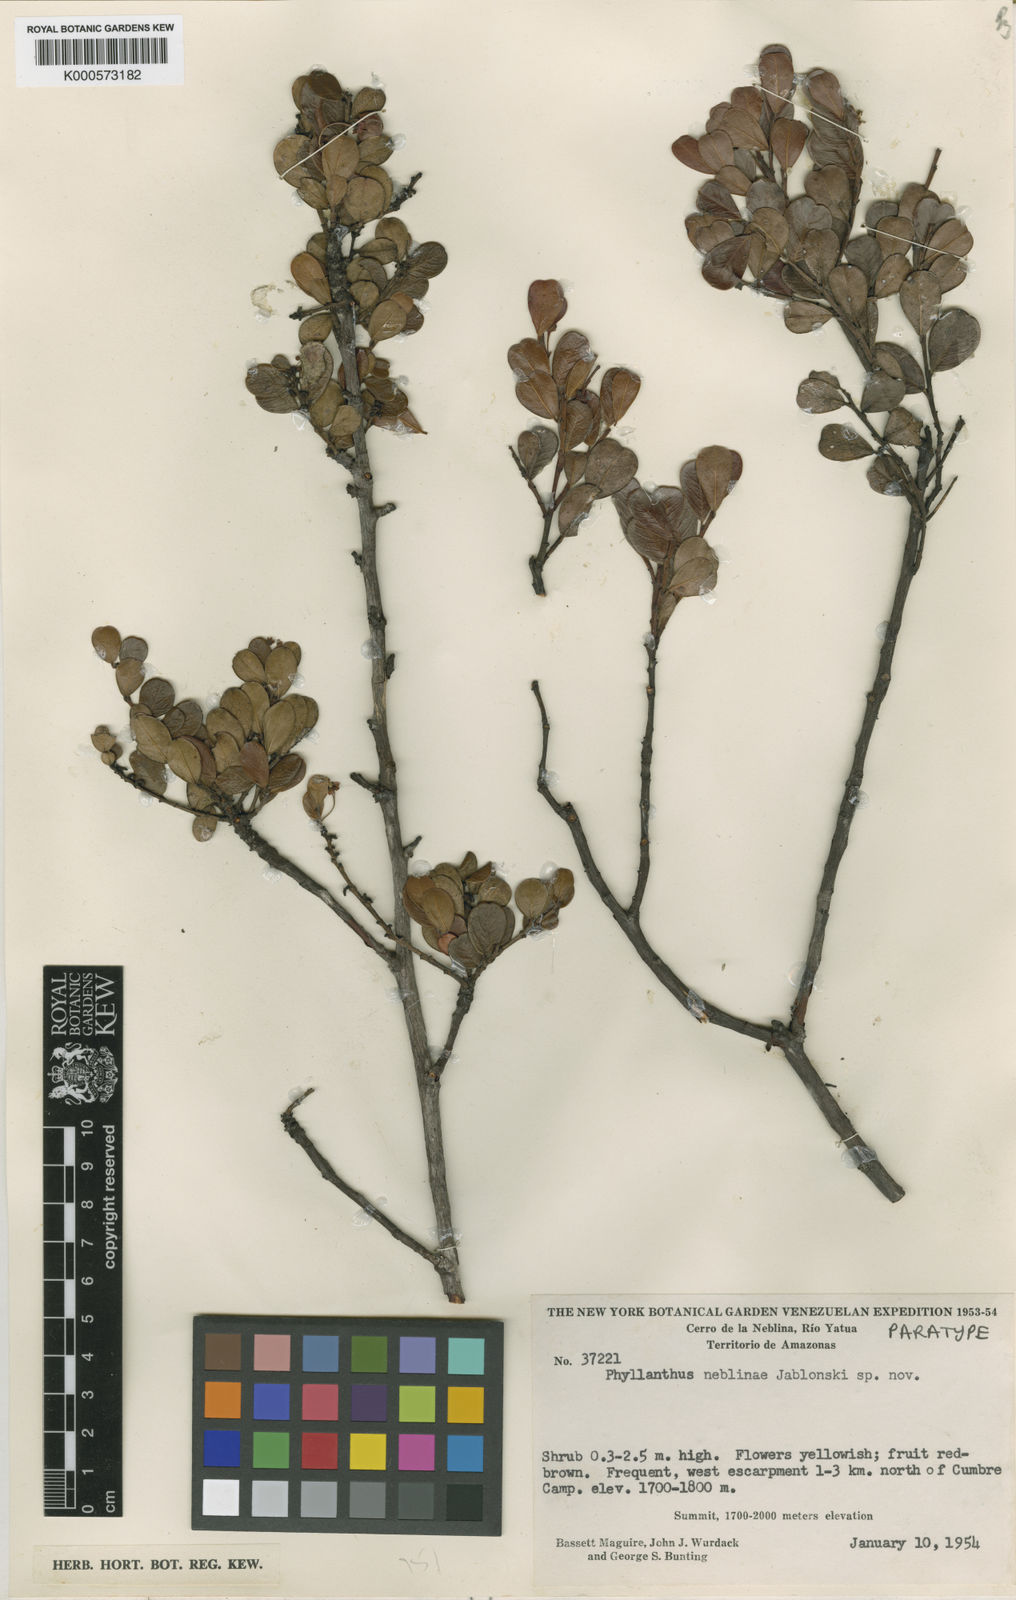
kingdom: Plantae
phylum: Tracheophyta
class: Magnoliopsida
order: Malpighiales
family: Phyllanthaceae
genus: Phyllanthus
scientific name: Phyllanthus neblinae
